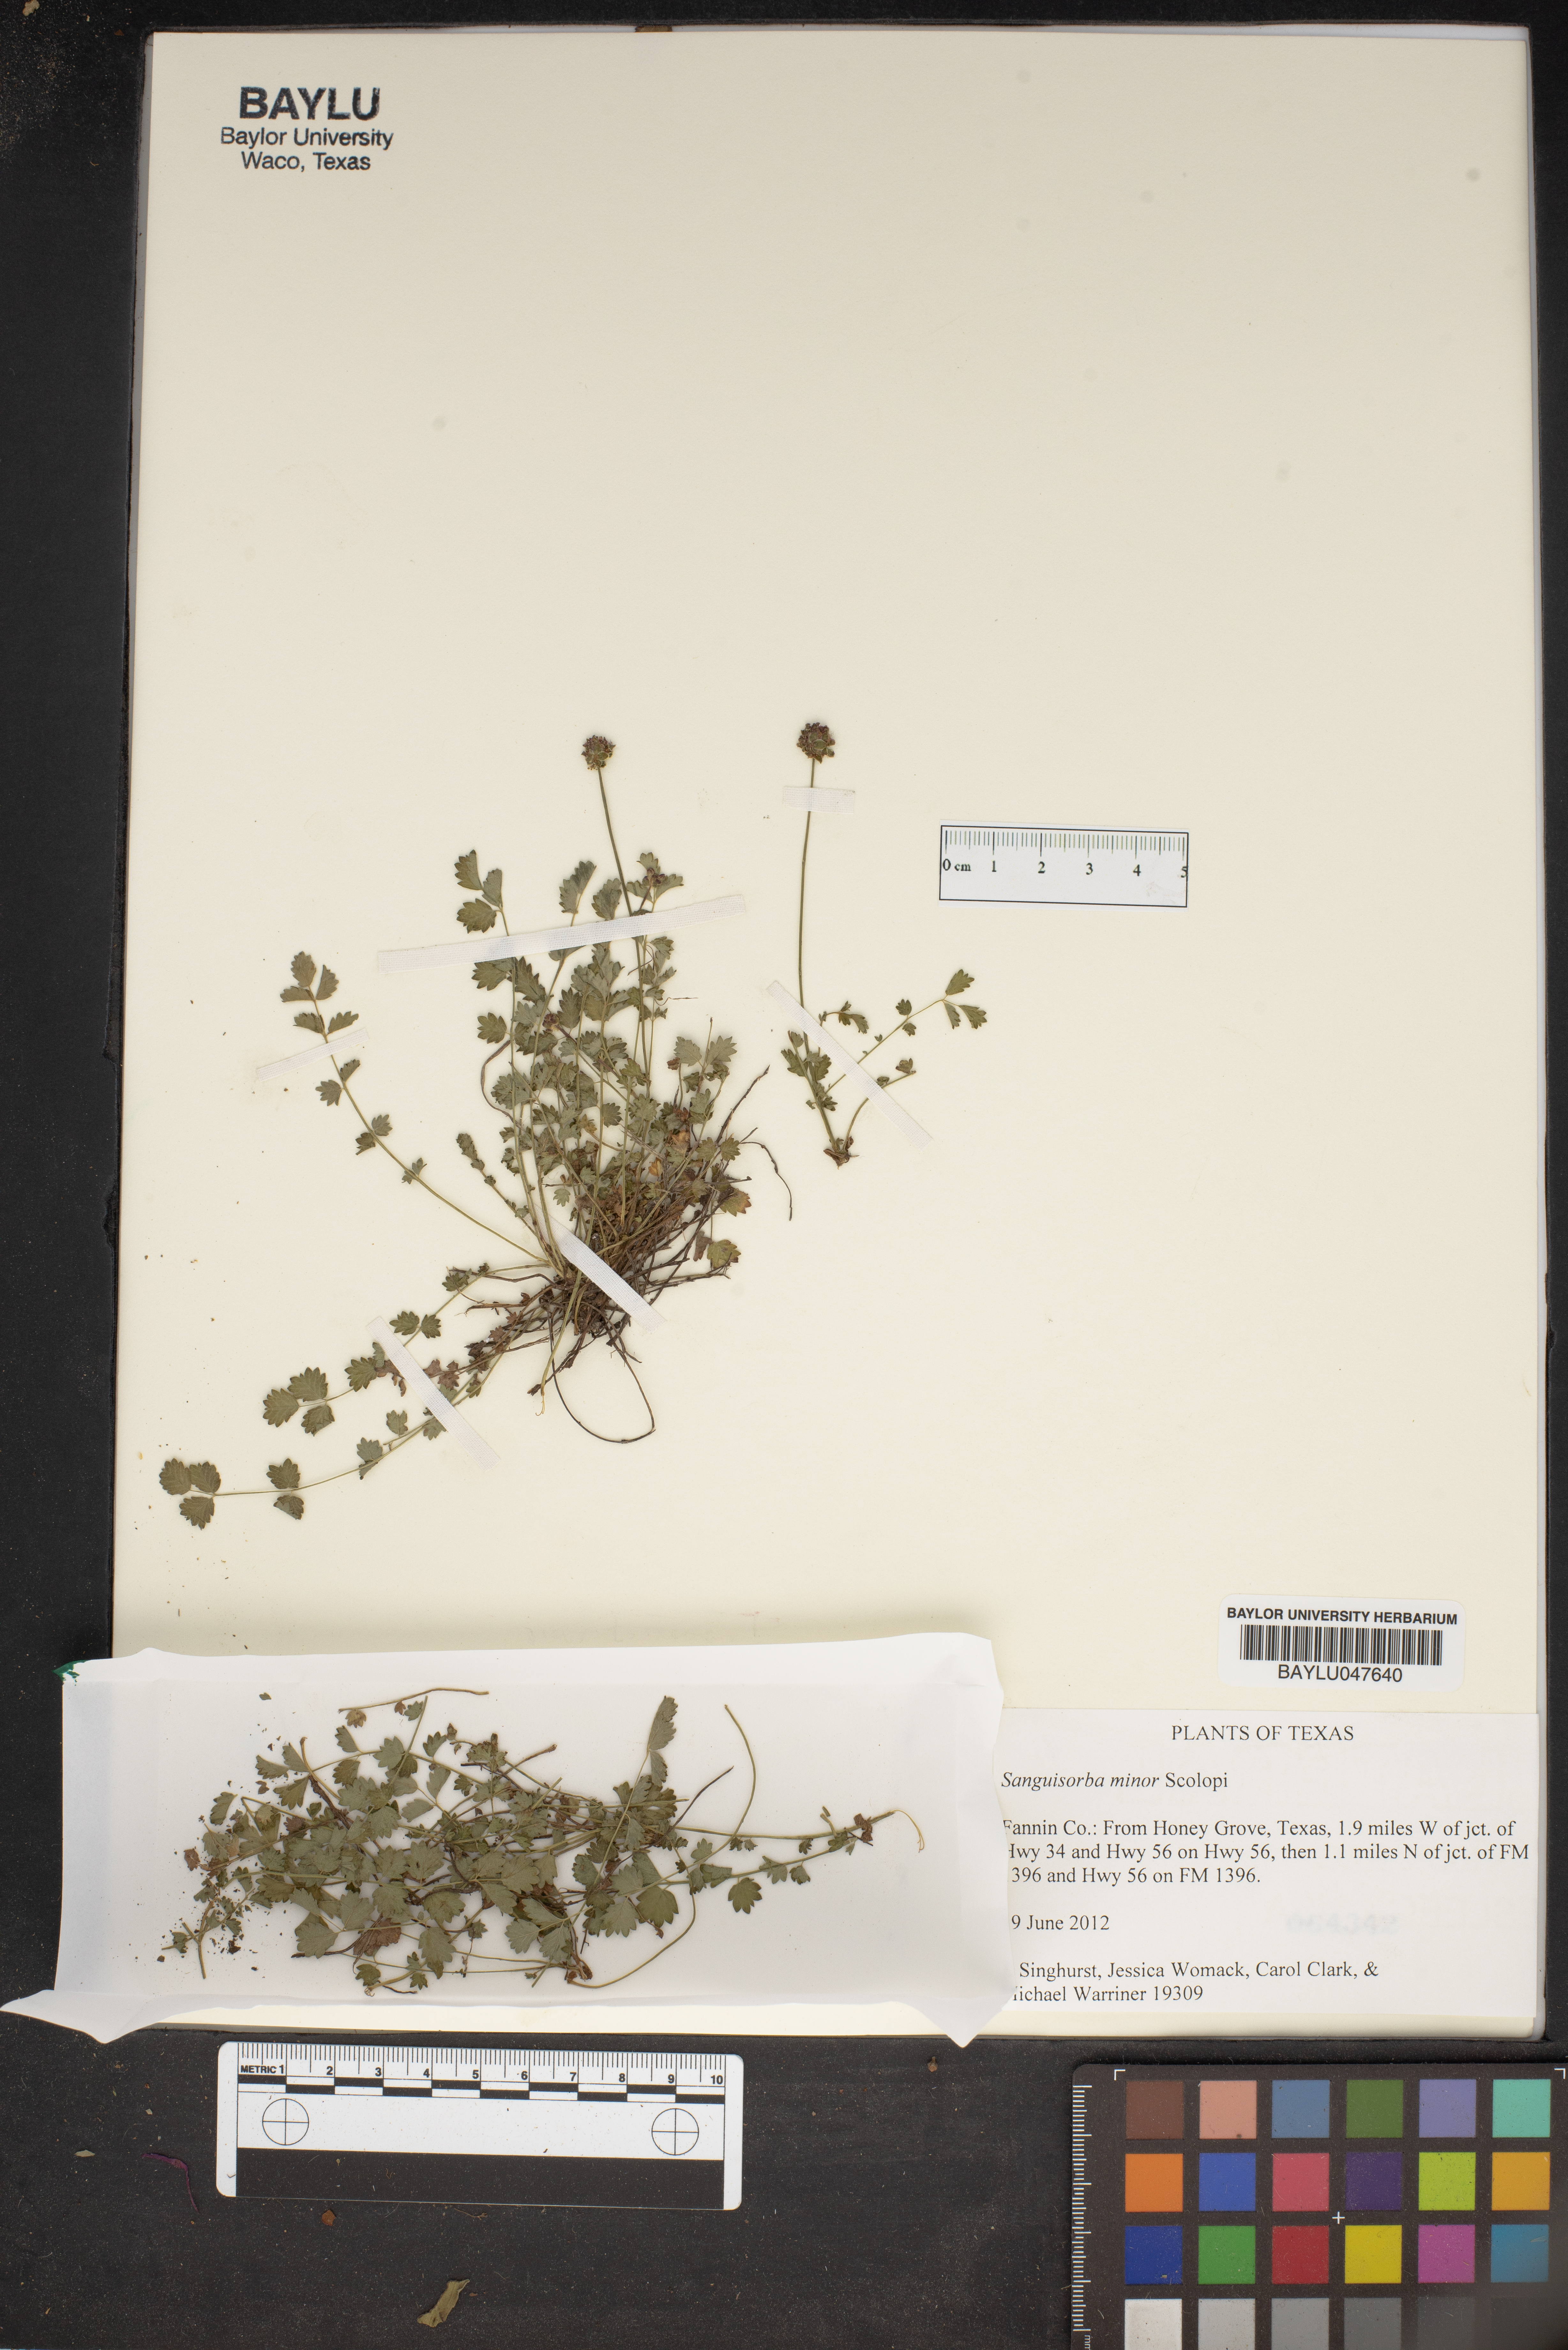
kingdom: Plantae
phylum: Tracheophyta
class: Magnoliopsida
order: Rosales
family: Rosaceae
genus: Poterium
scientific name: Poterium sanguisorba
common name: Salad burnet
